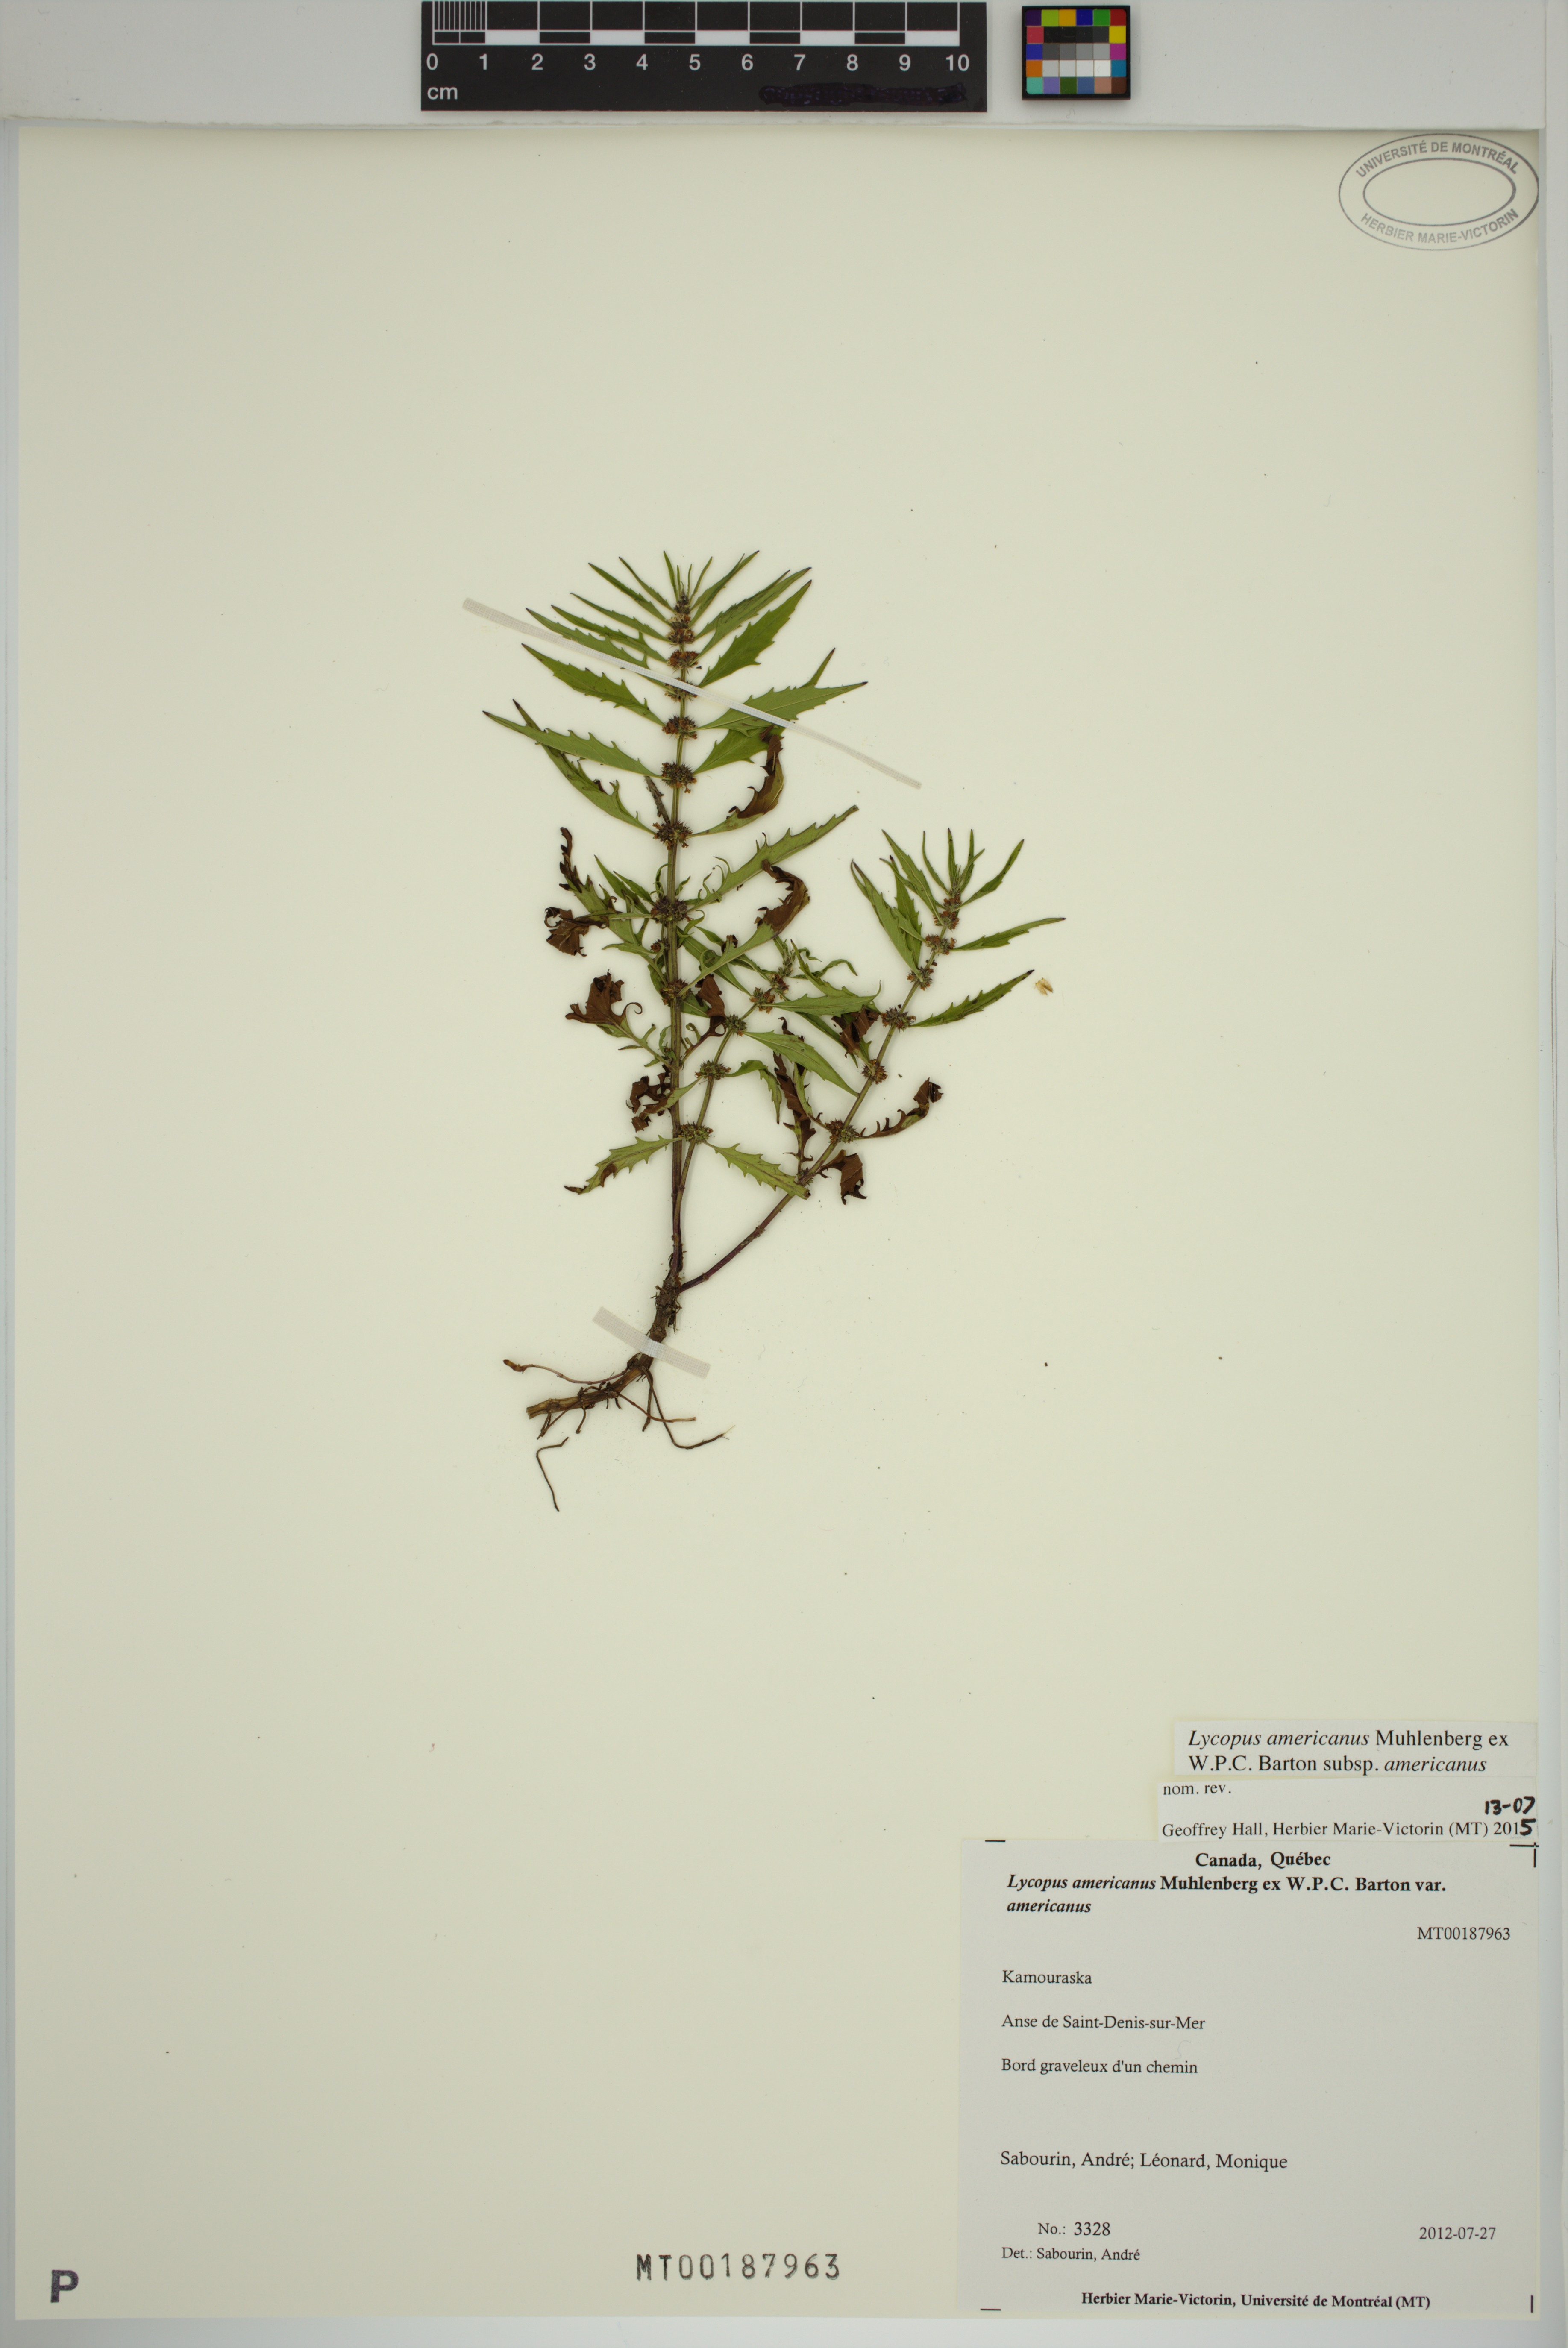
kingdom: Plantae
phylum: Tracheophyta
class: Magnoliopsida
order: Lamiales
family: Lamiaceae
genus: Lycopus
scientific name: Lycopus americanus
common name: American bugleweed
